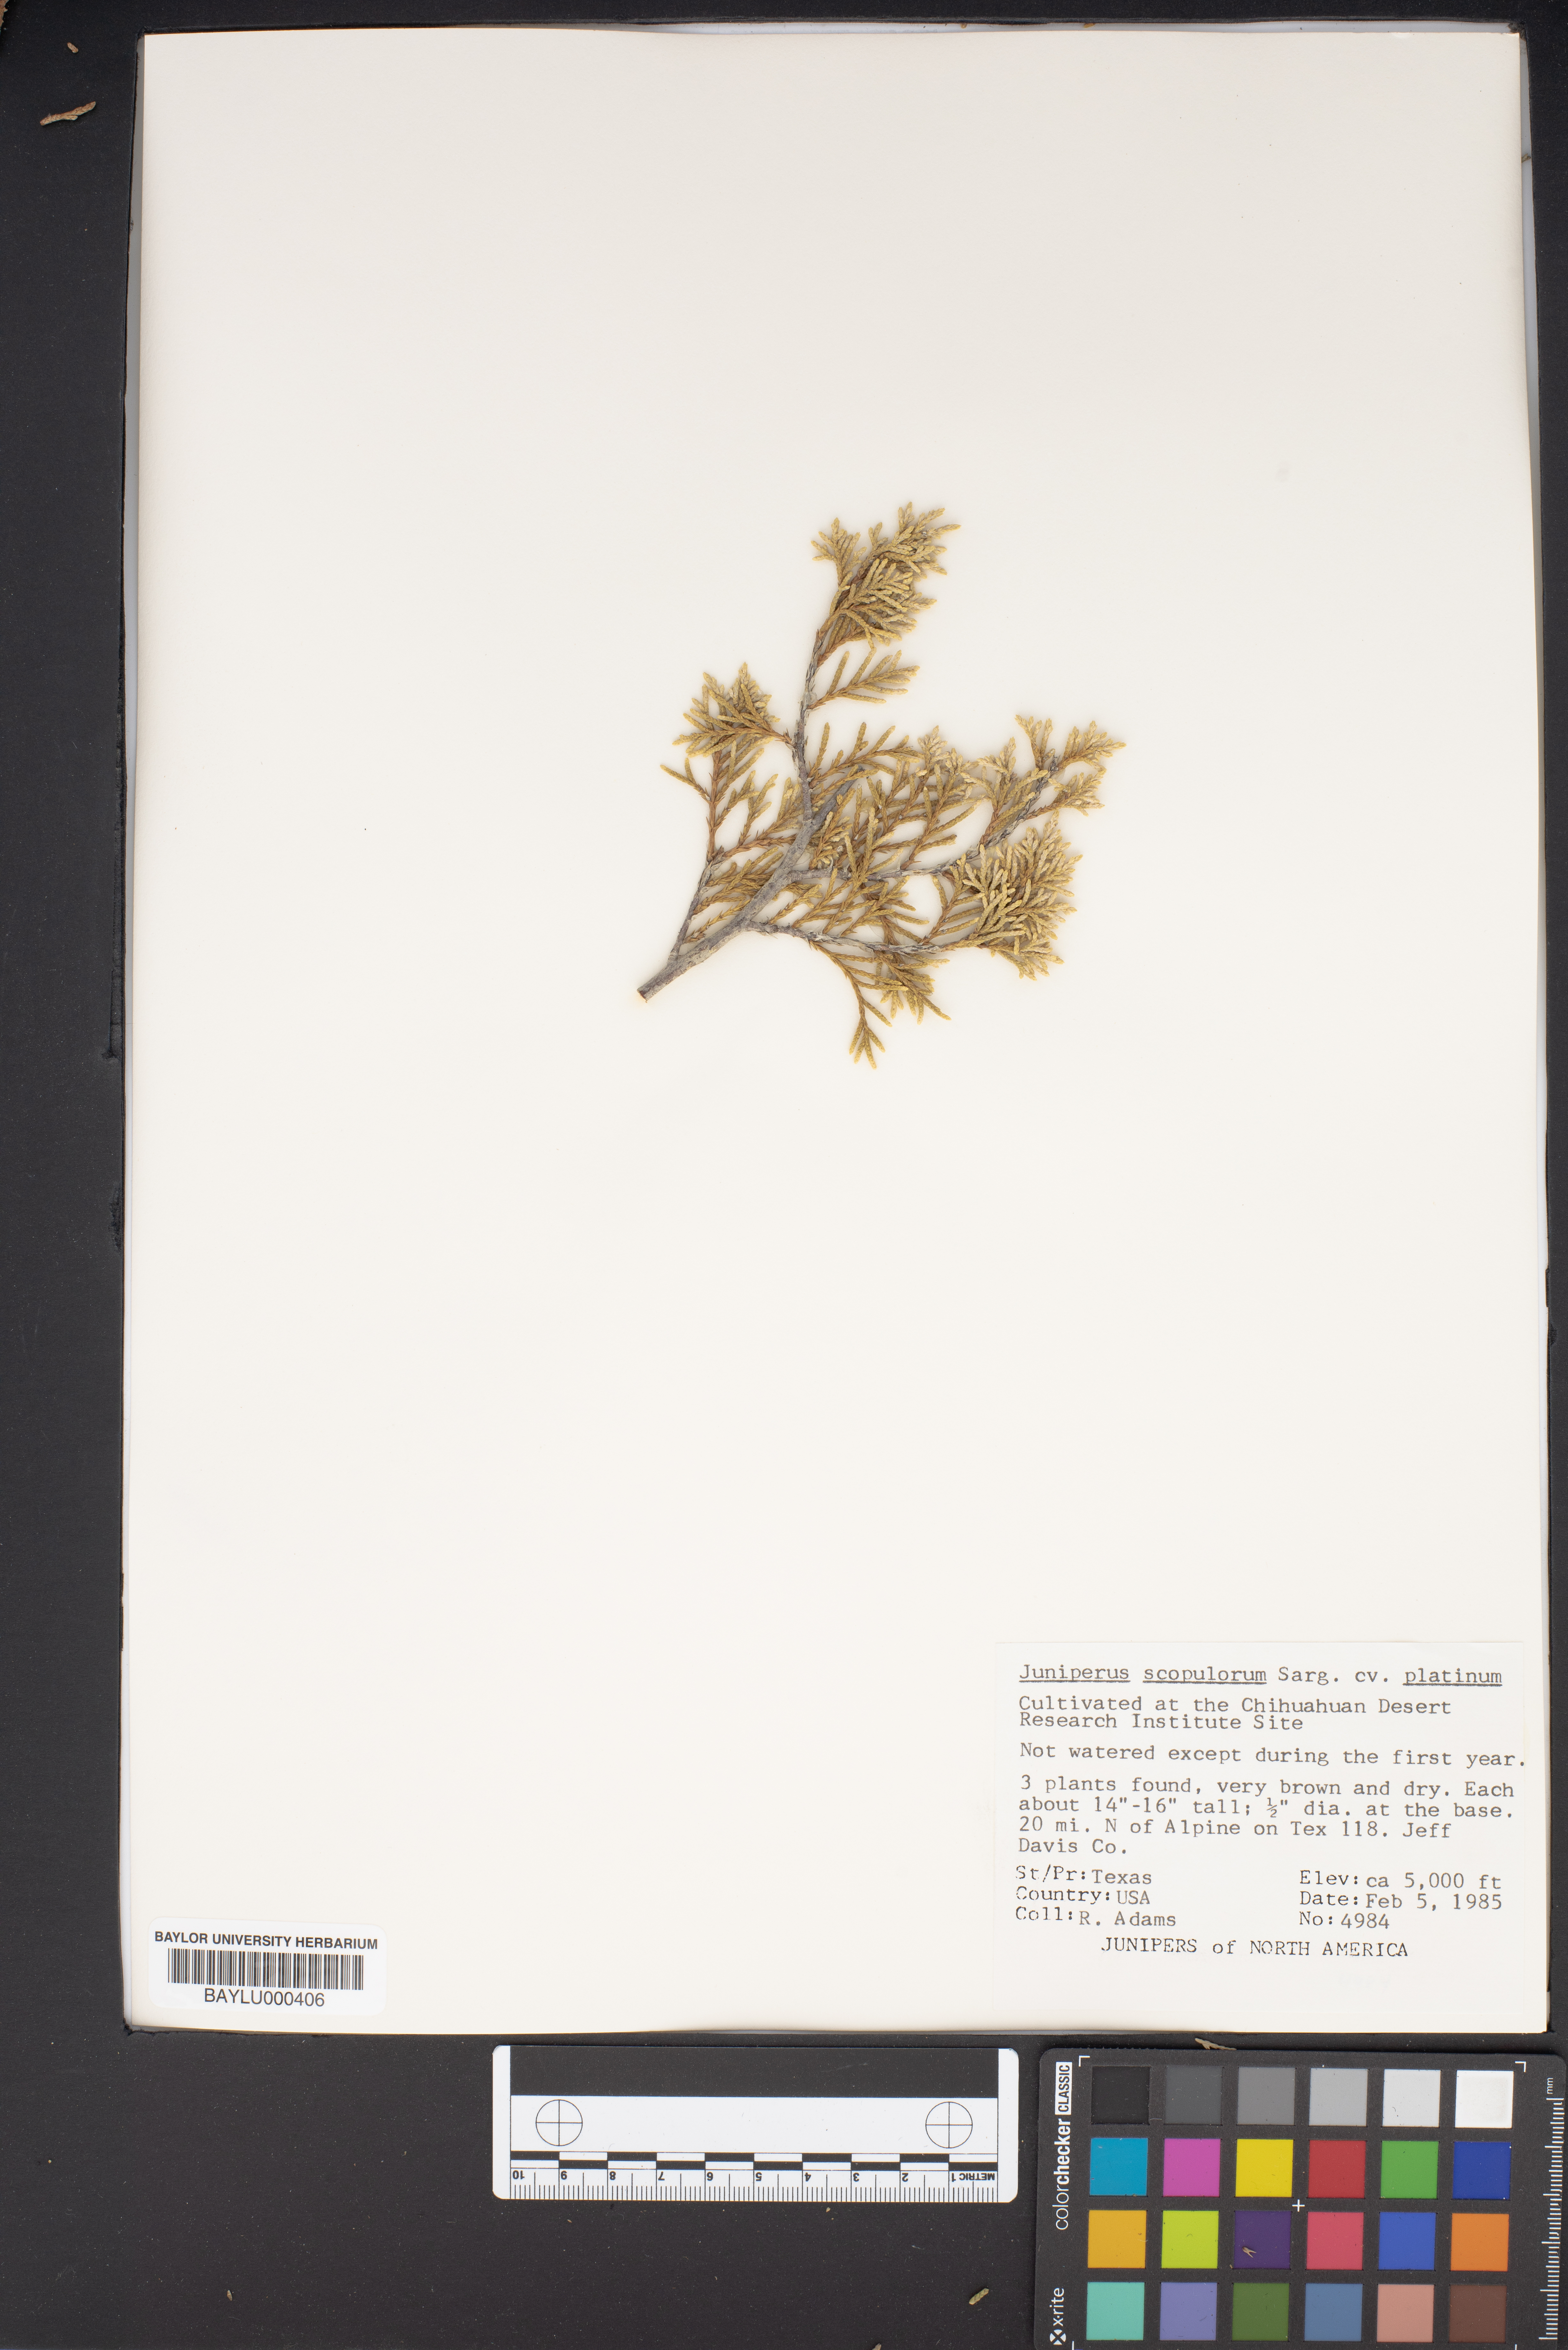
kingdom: Plantae
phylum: Tracheophyta
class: Pinopsida
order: Pinales
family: Cupressaceae
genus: Juniperus
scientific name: Juniperus scopulorum
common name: Rocky mountain juniper
